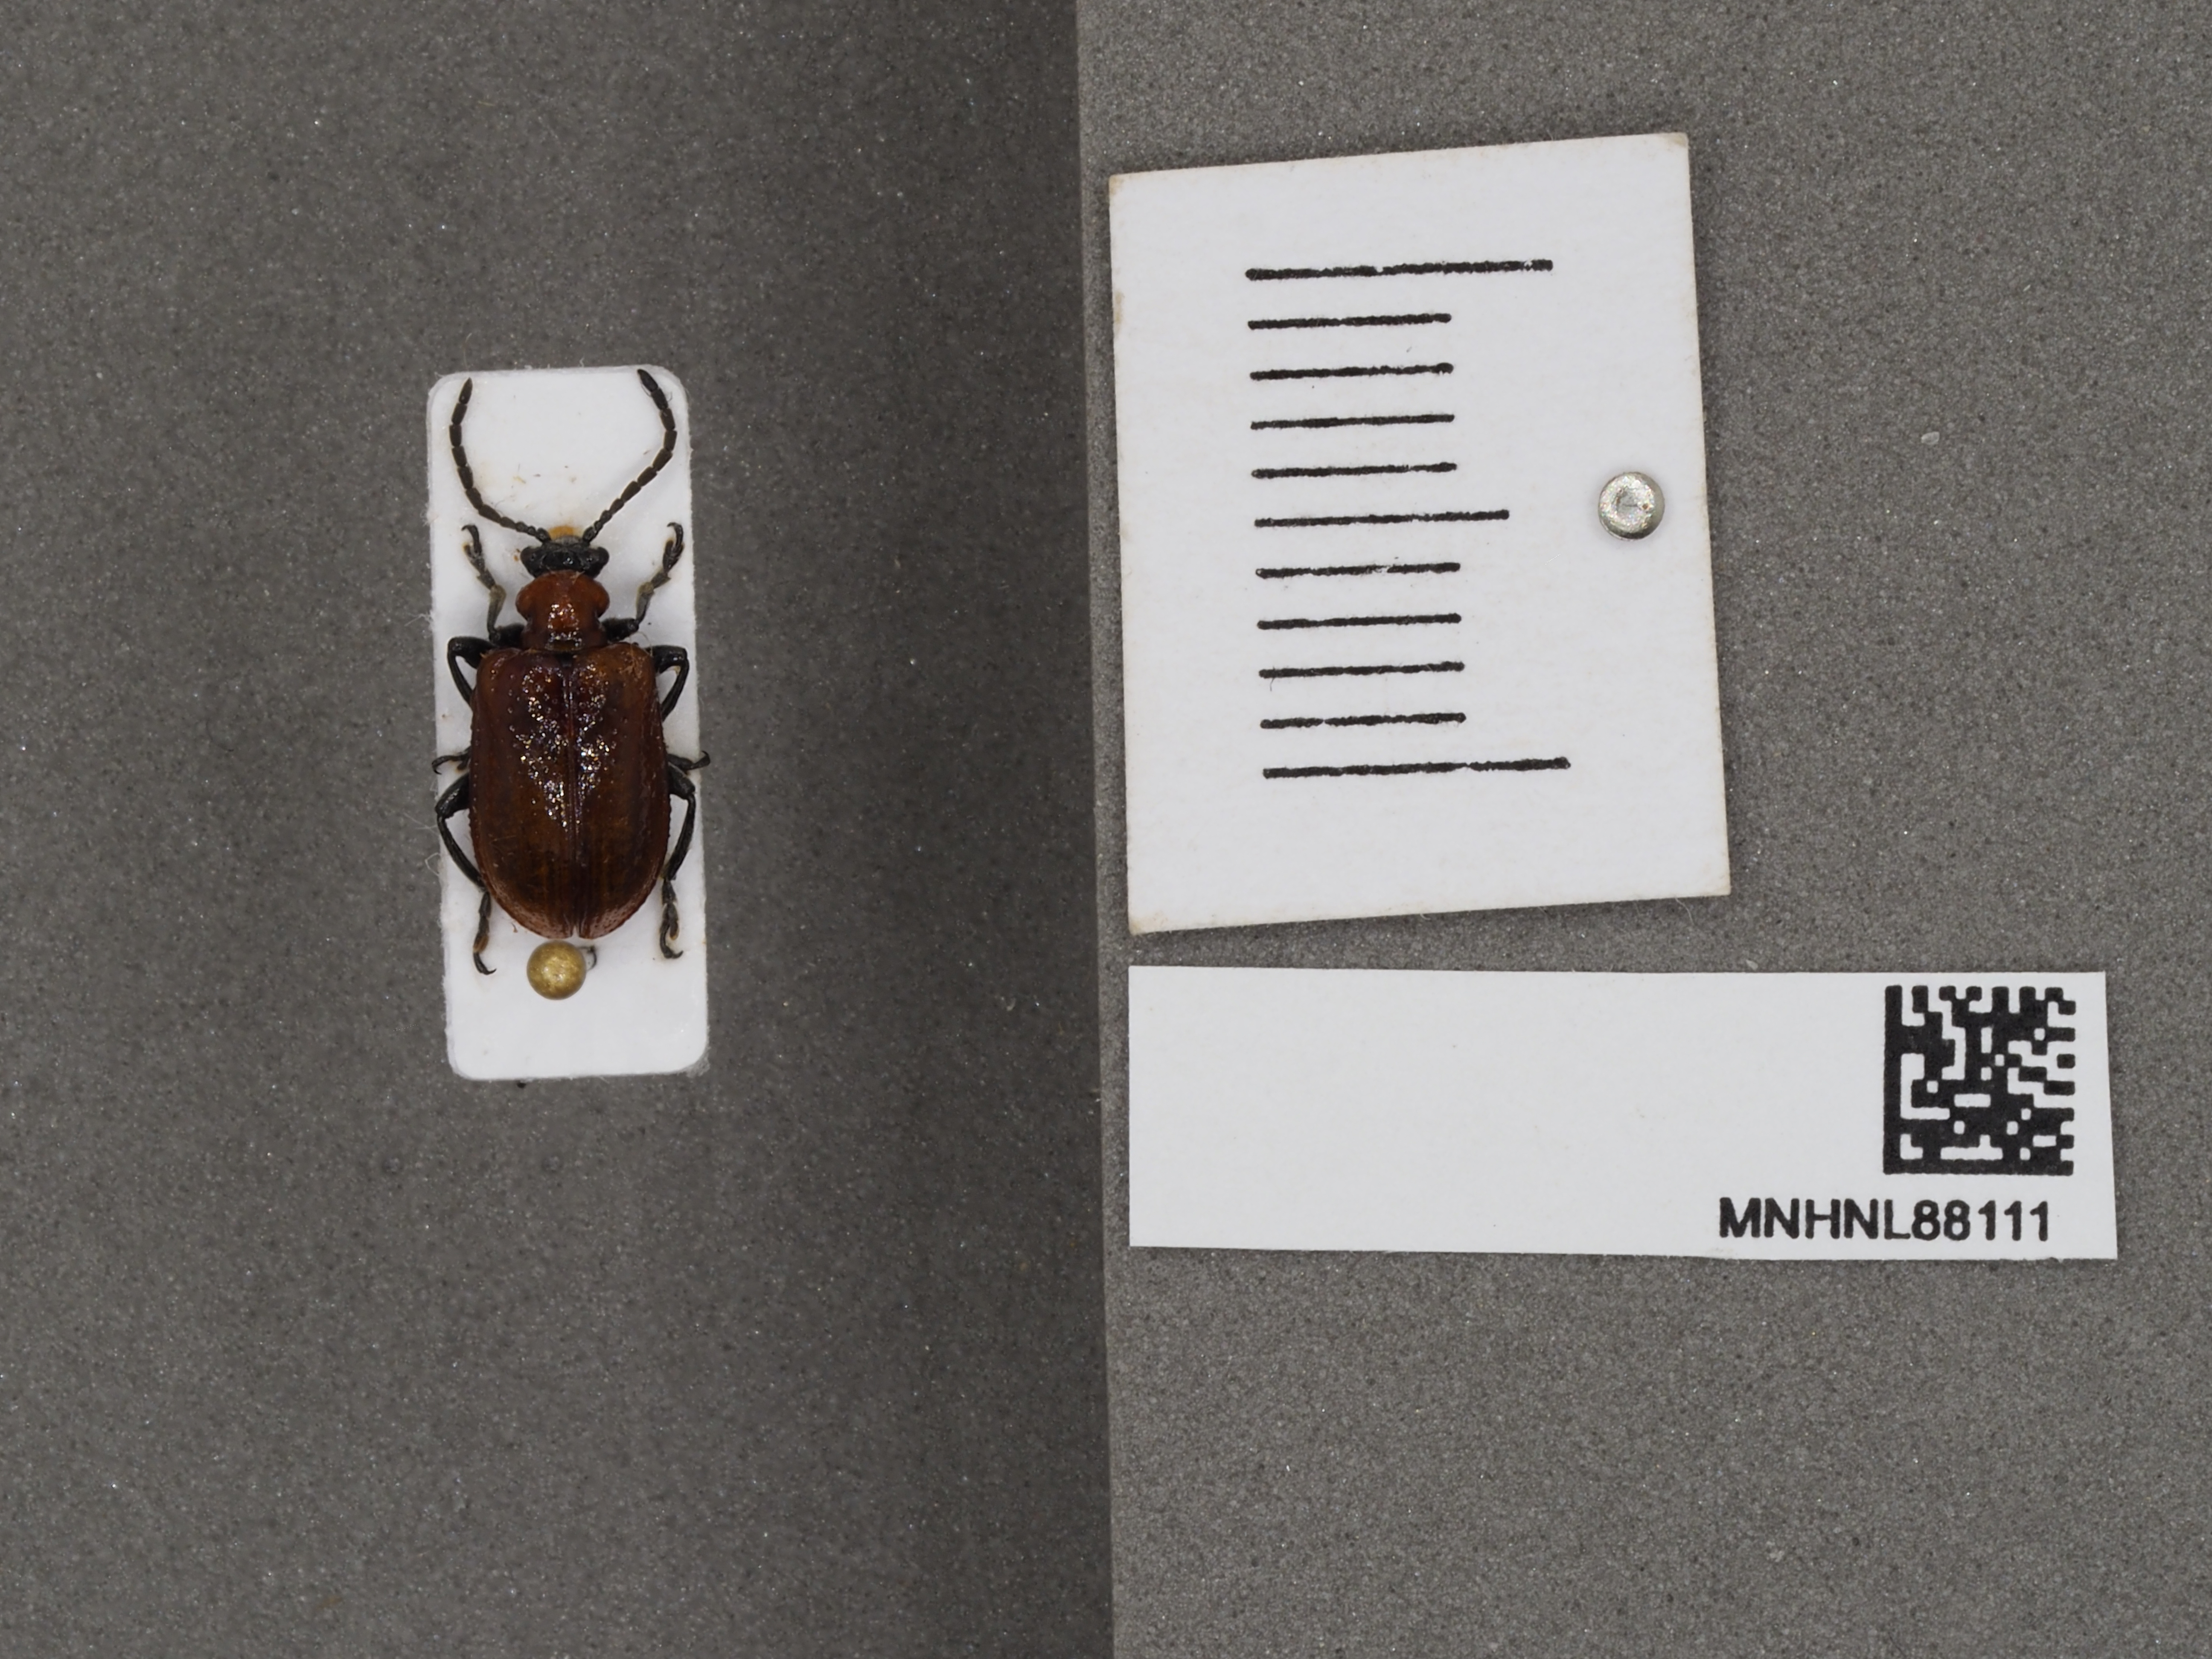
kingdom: Animalia
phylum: Arthropoda
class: Insecta
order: Coleoptera
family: Chrysomelidae
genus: Lilioceris
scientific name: Lilioceris lilii
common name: Lily beetle
